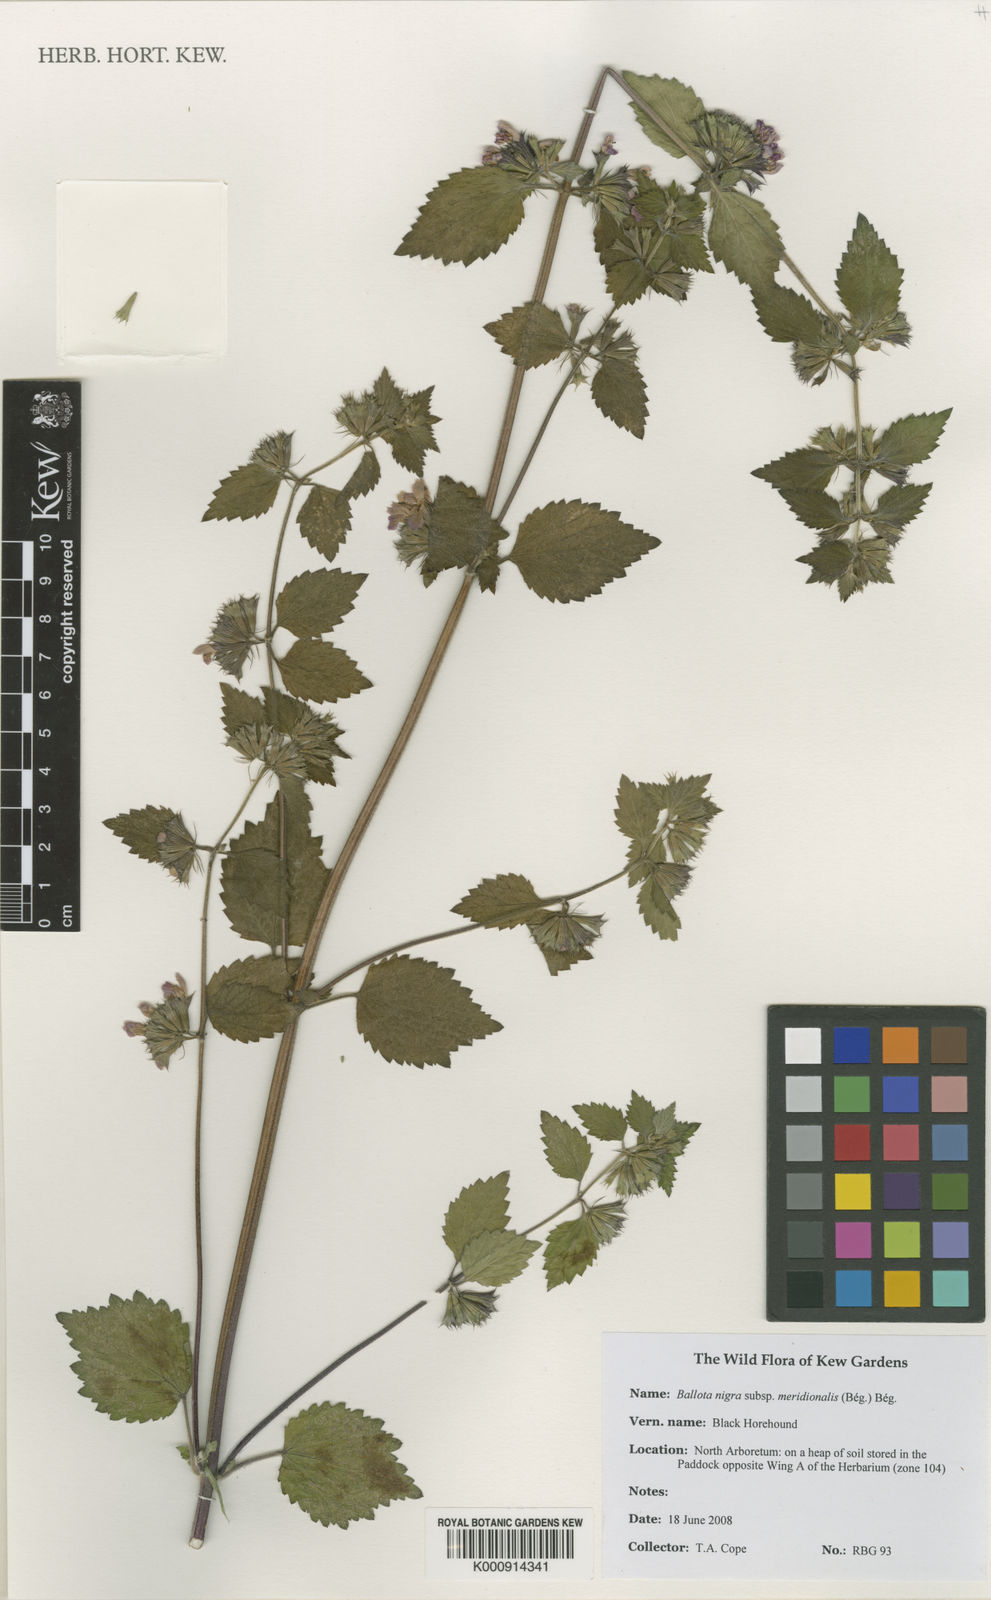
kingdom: Plantae
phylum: Tracheophyta
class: Magnoliopsida
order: Lamiales
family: Lamiaceae
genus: Ballota
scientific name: Ballota
